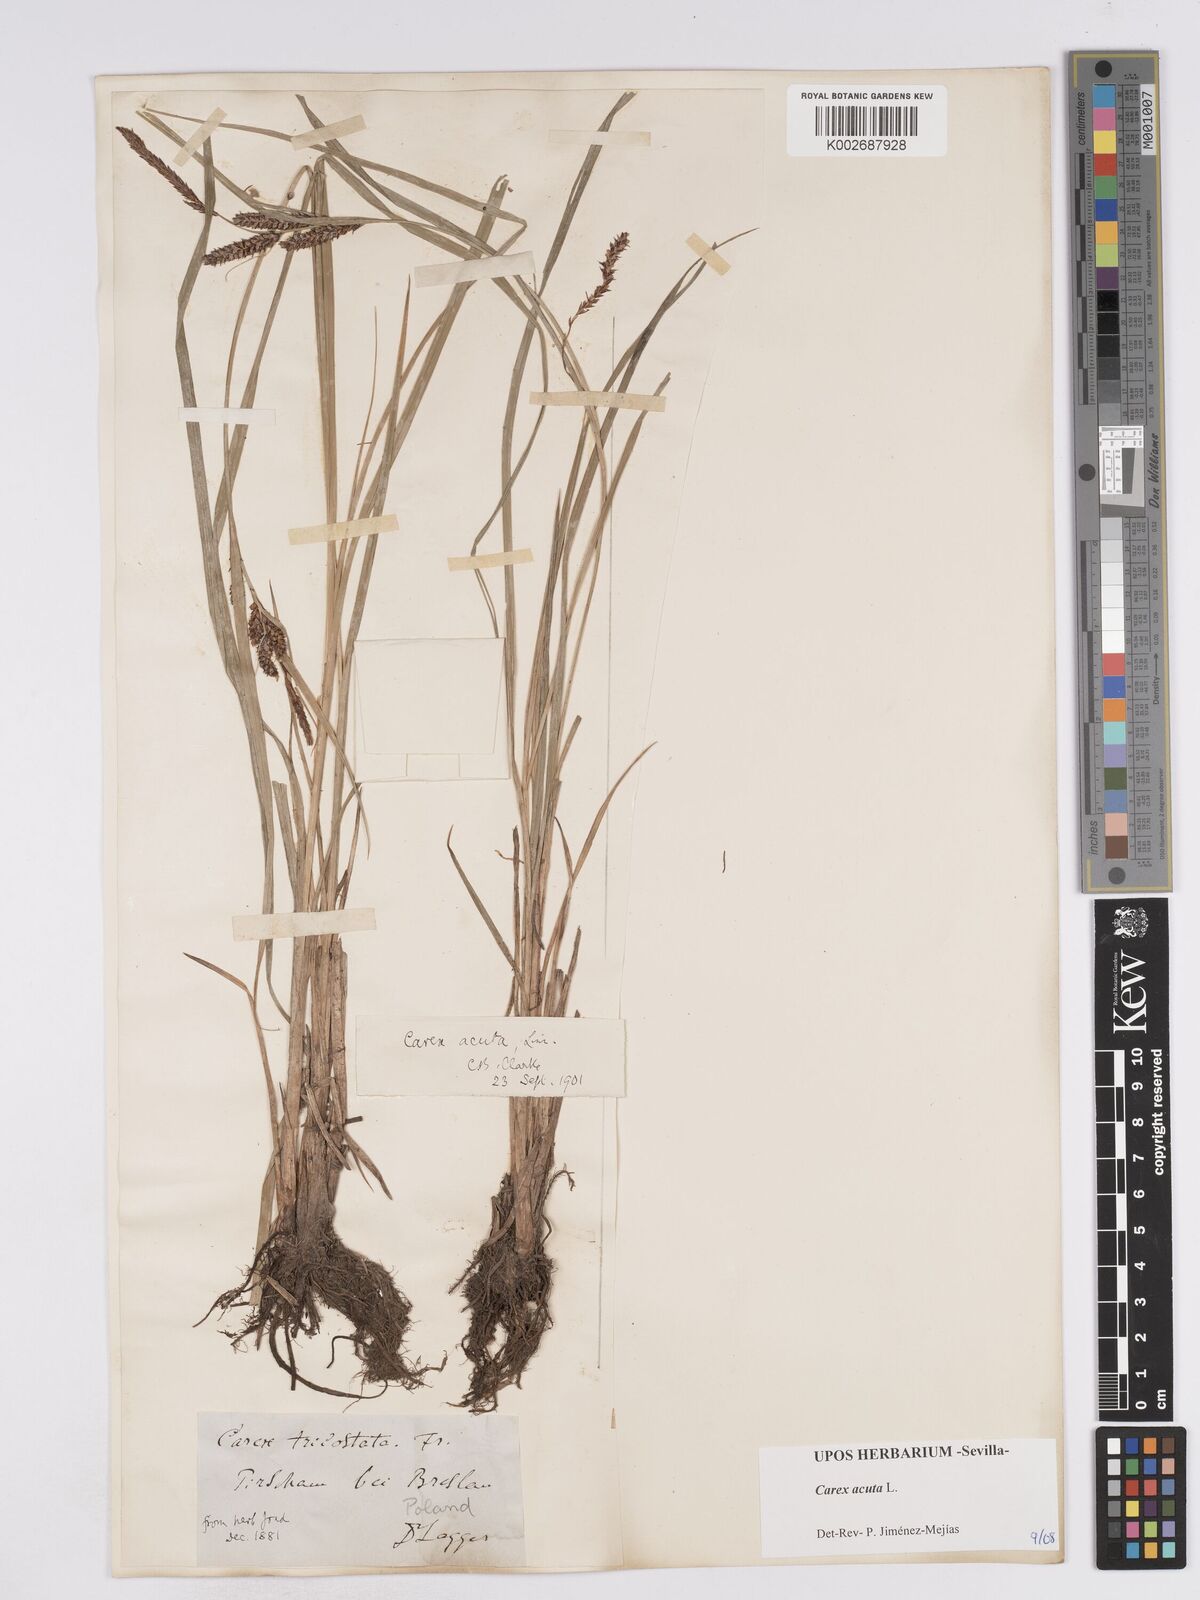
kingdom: Plantae
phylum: Tracheophyta
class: Liliopsida
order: Poales
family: Cyperaceae
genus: Carex
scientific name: Carex acuta
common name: Slender tufted-sedge
